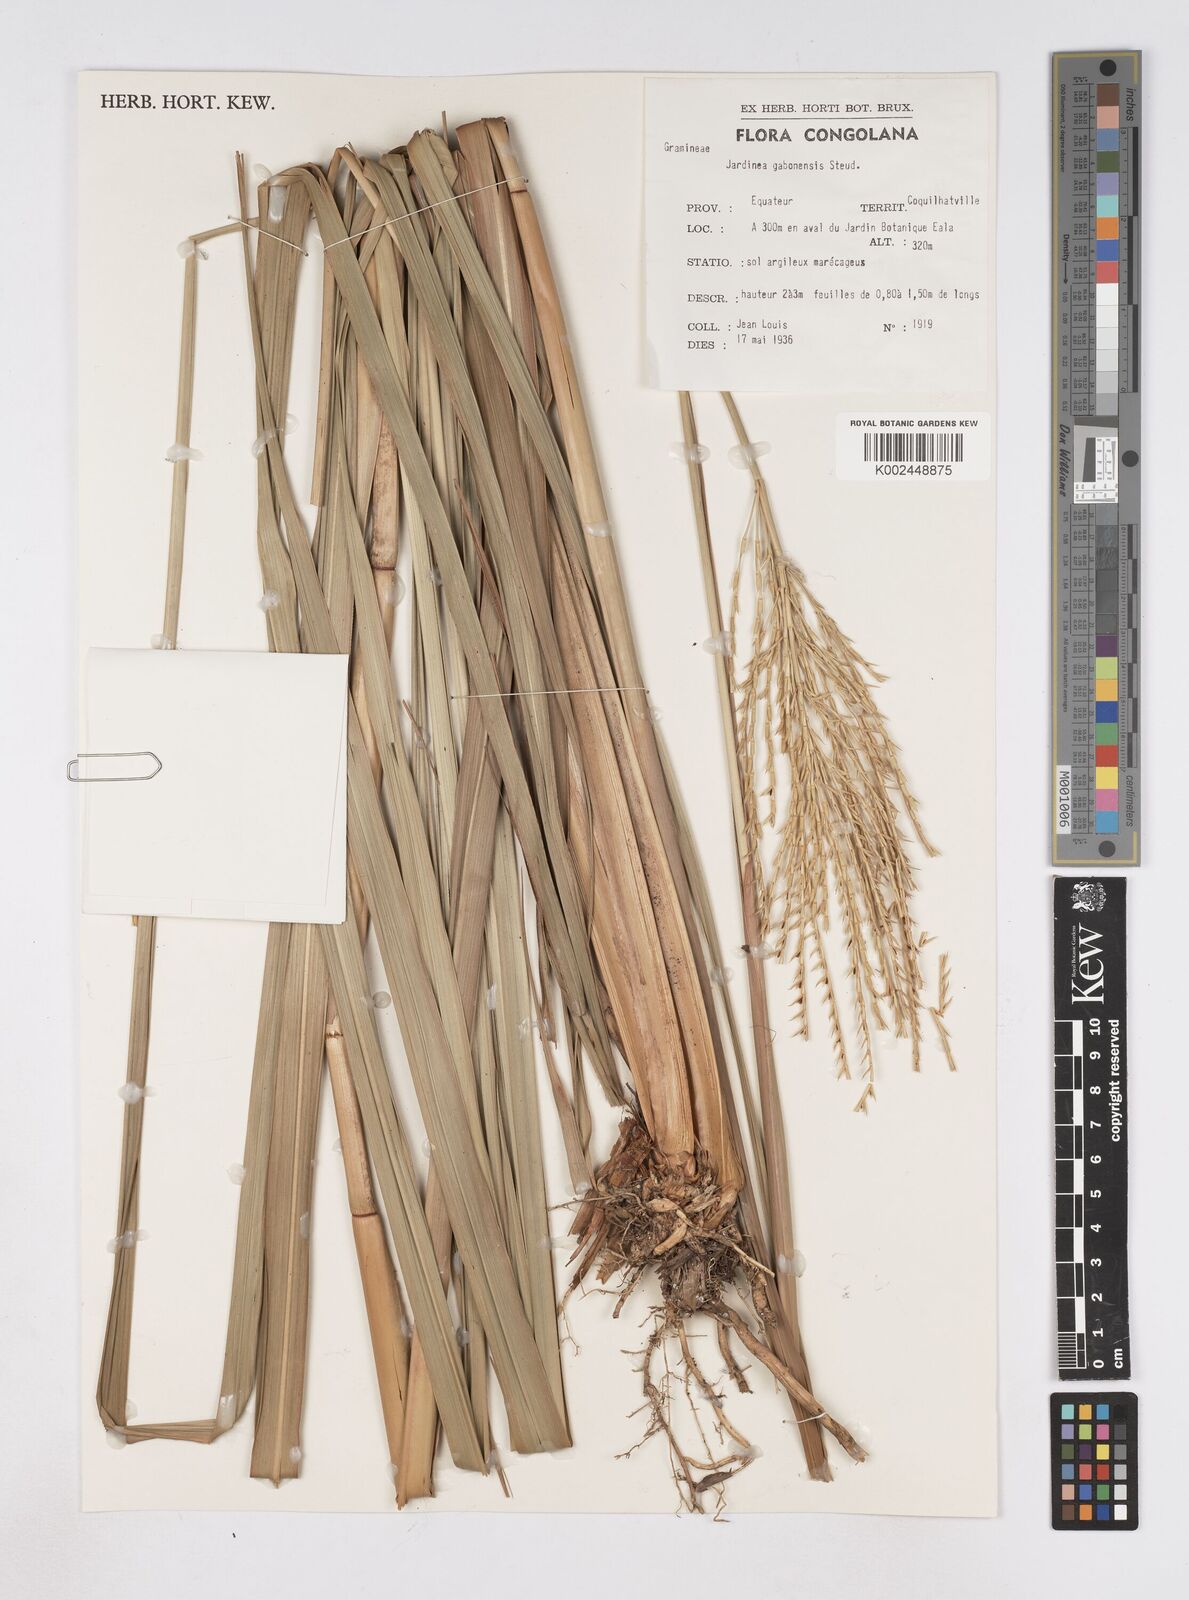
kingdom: Plantae
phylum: Tracheophyta
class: Liliopsida
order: Poales
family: Poaceae
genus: Phacelurus
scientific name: Phacelurus gabonensis
